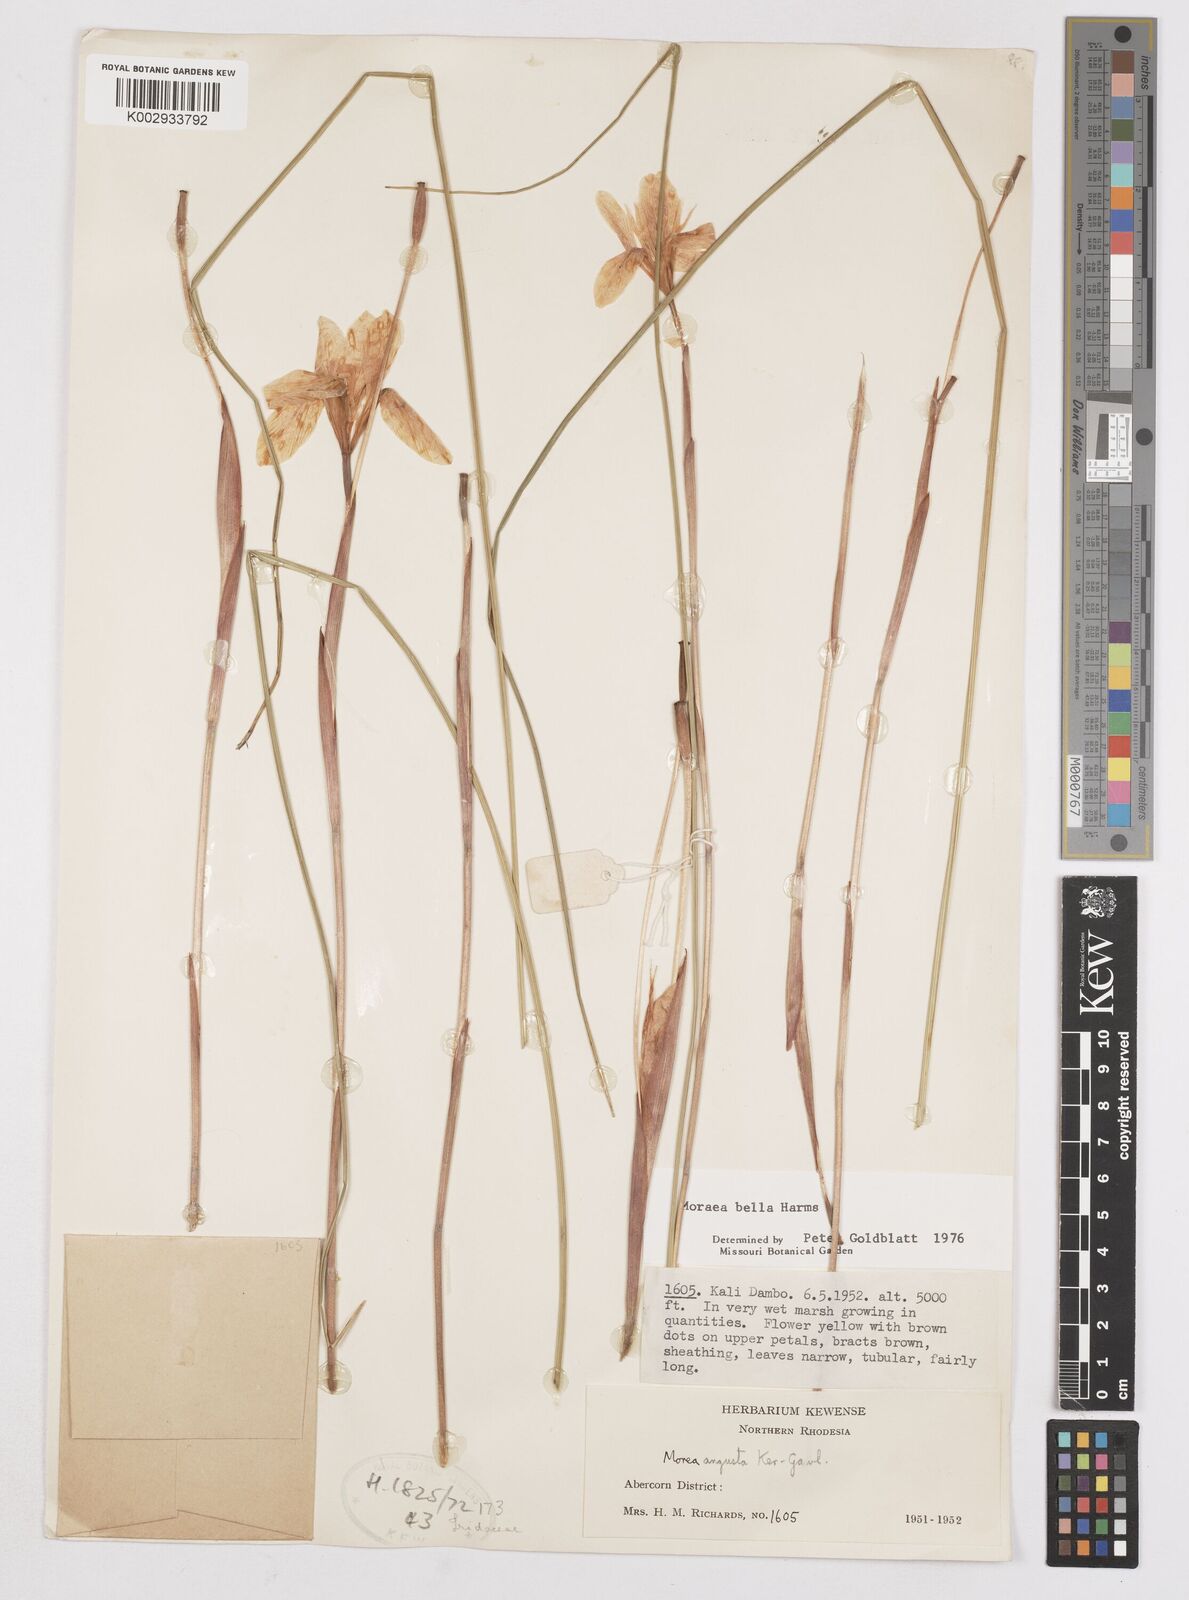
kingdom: Plantae
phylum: Tracheophyta
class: Liliopsida
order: Asparagales
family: Iridaceae
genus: Moraea
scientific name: Moraea bella
